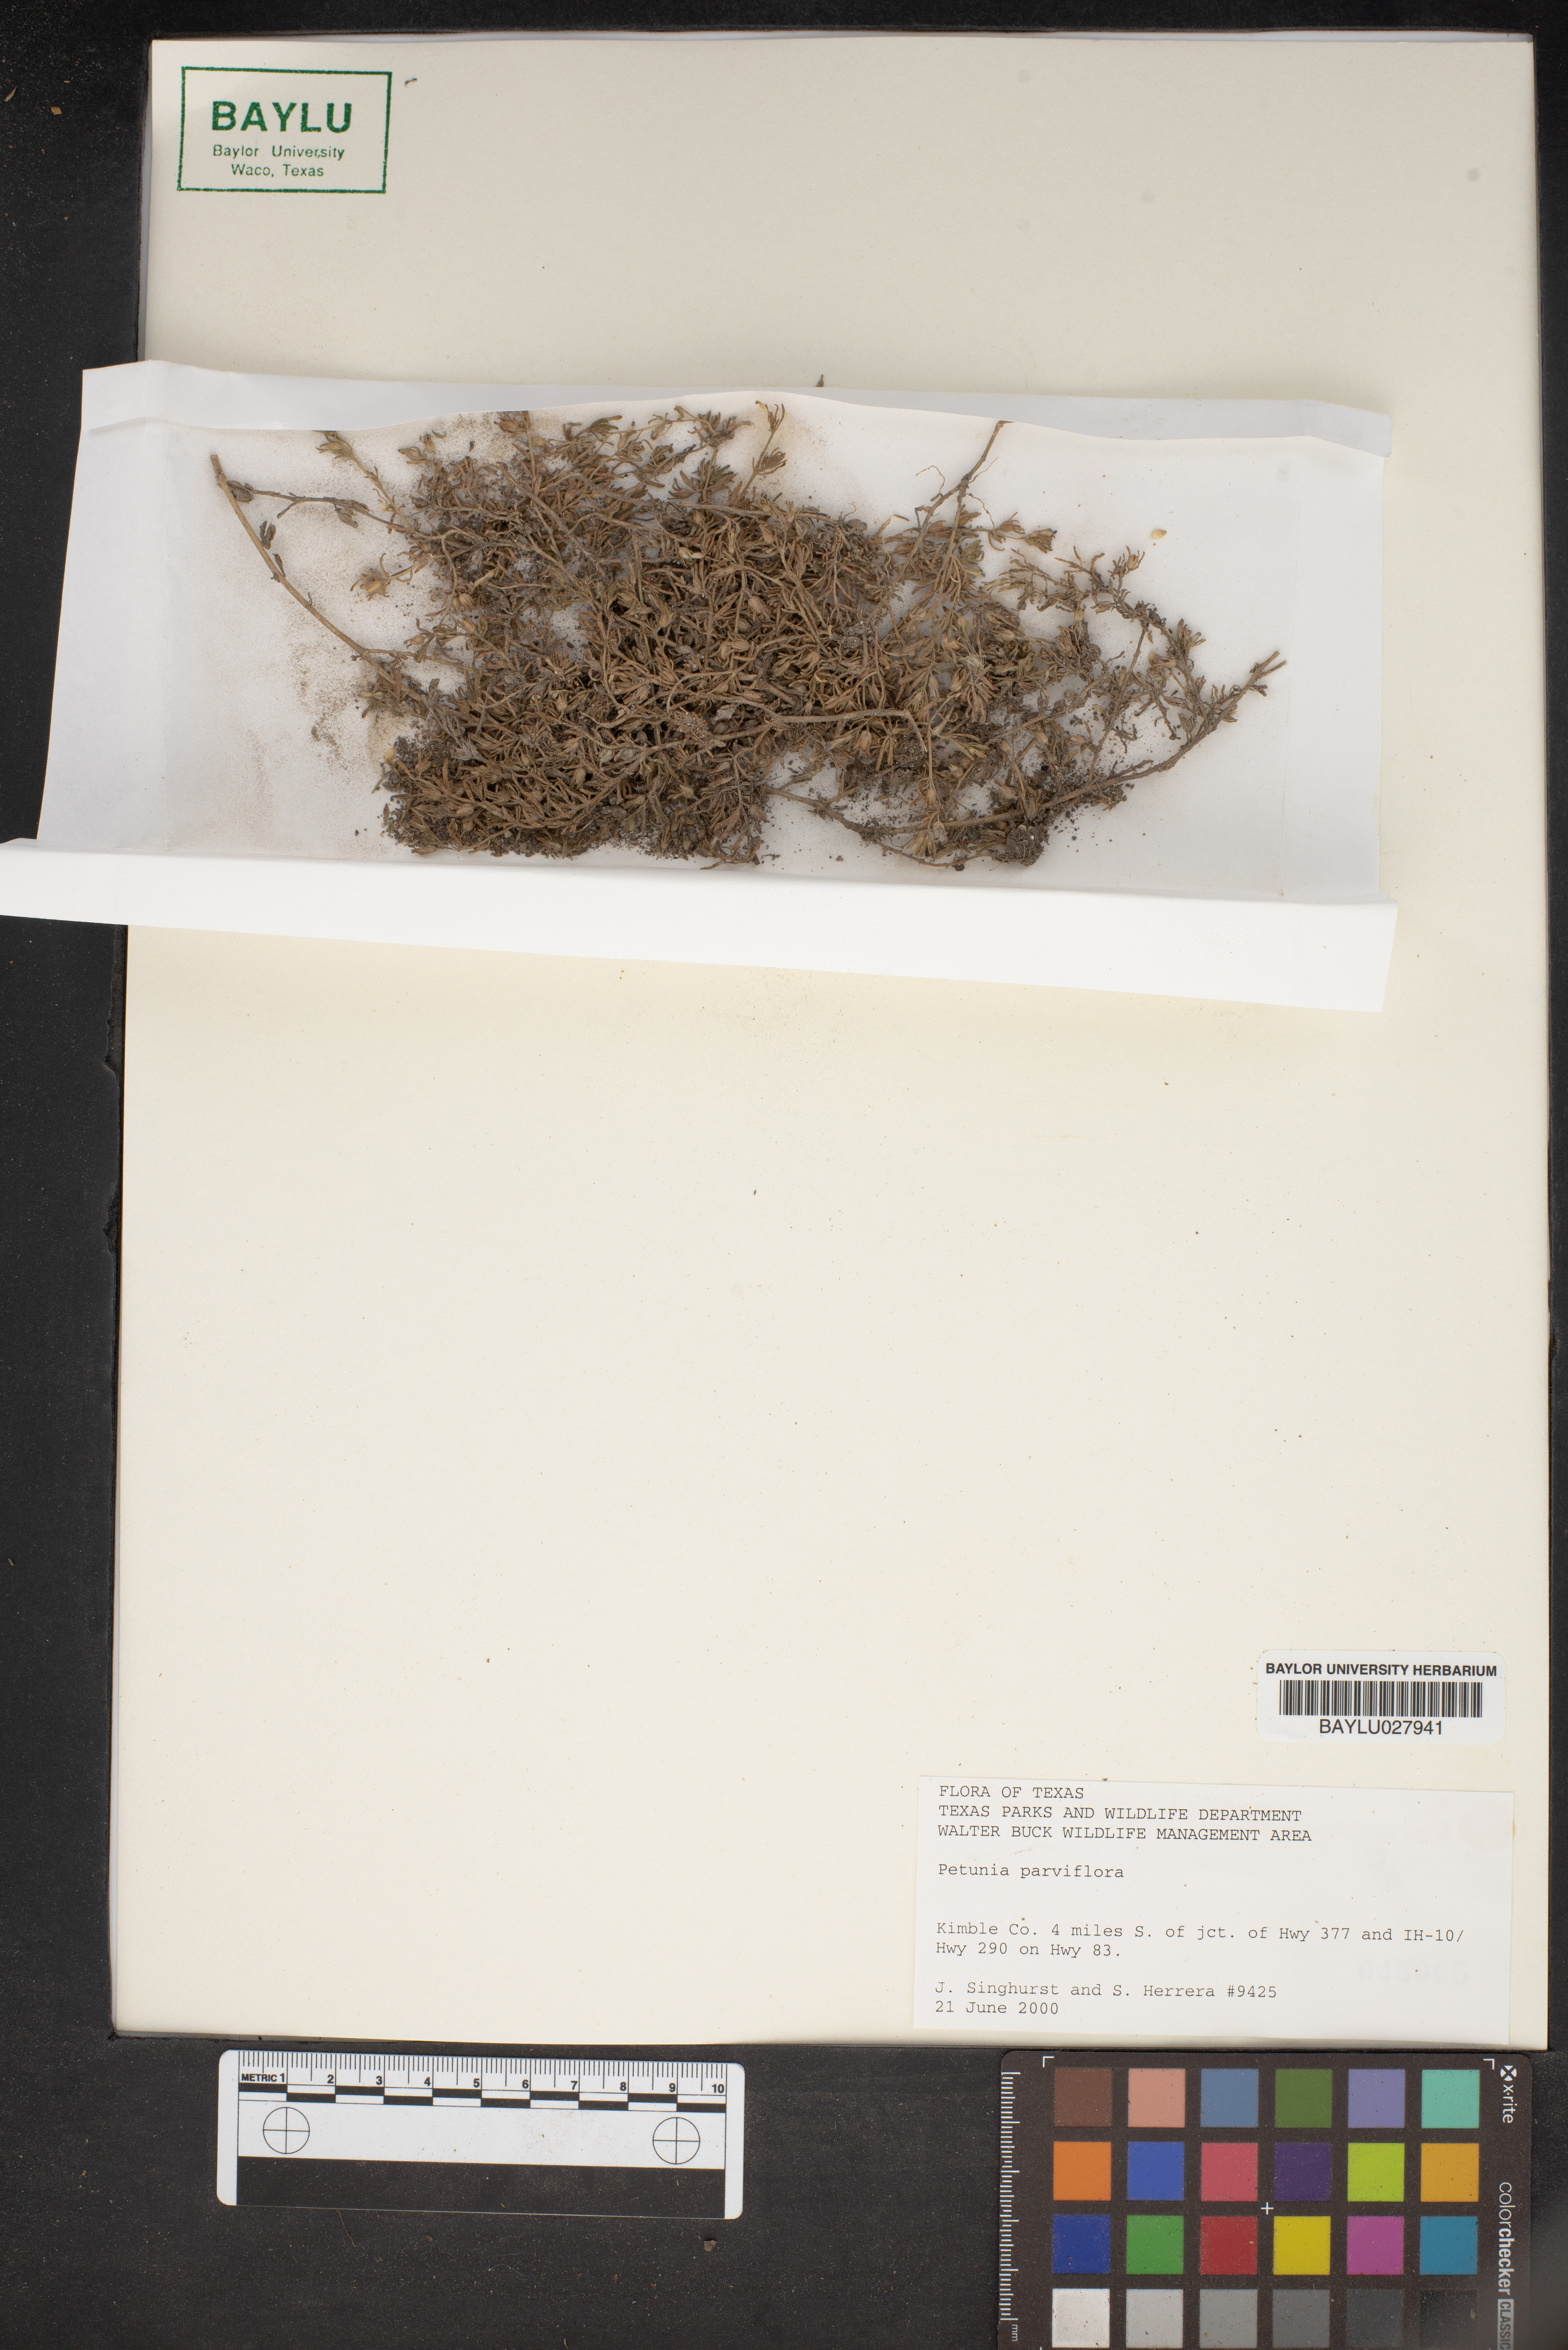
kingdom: Plantae
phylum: Tracheophyta
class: Magnoliopsida
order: Solanales
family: Solanaceae
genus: Calibrachoa
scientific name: Calibrachoa parviflora
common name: Seaside petunia
